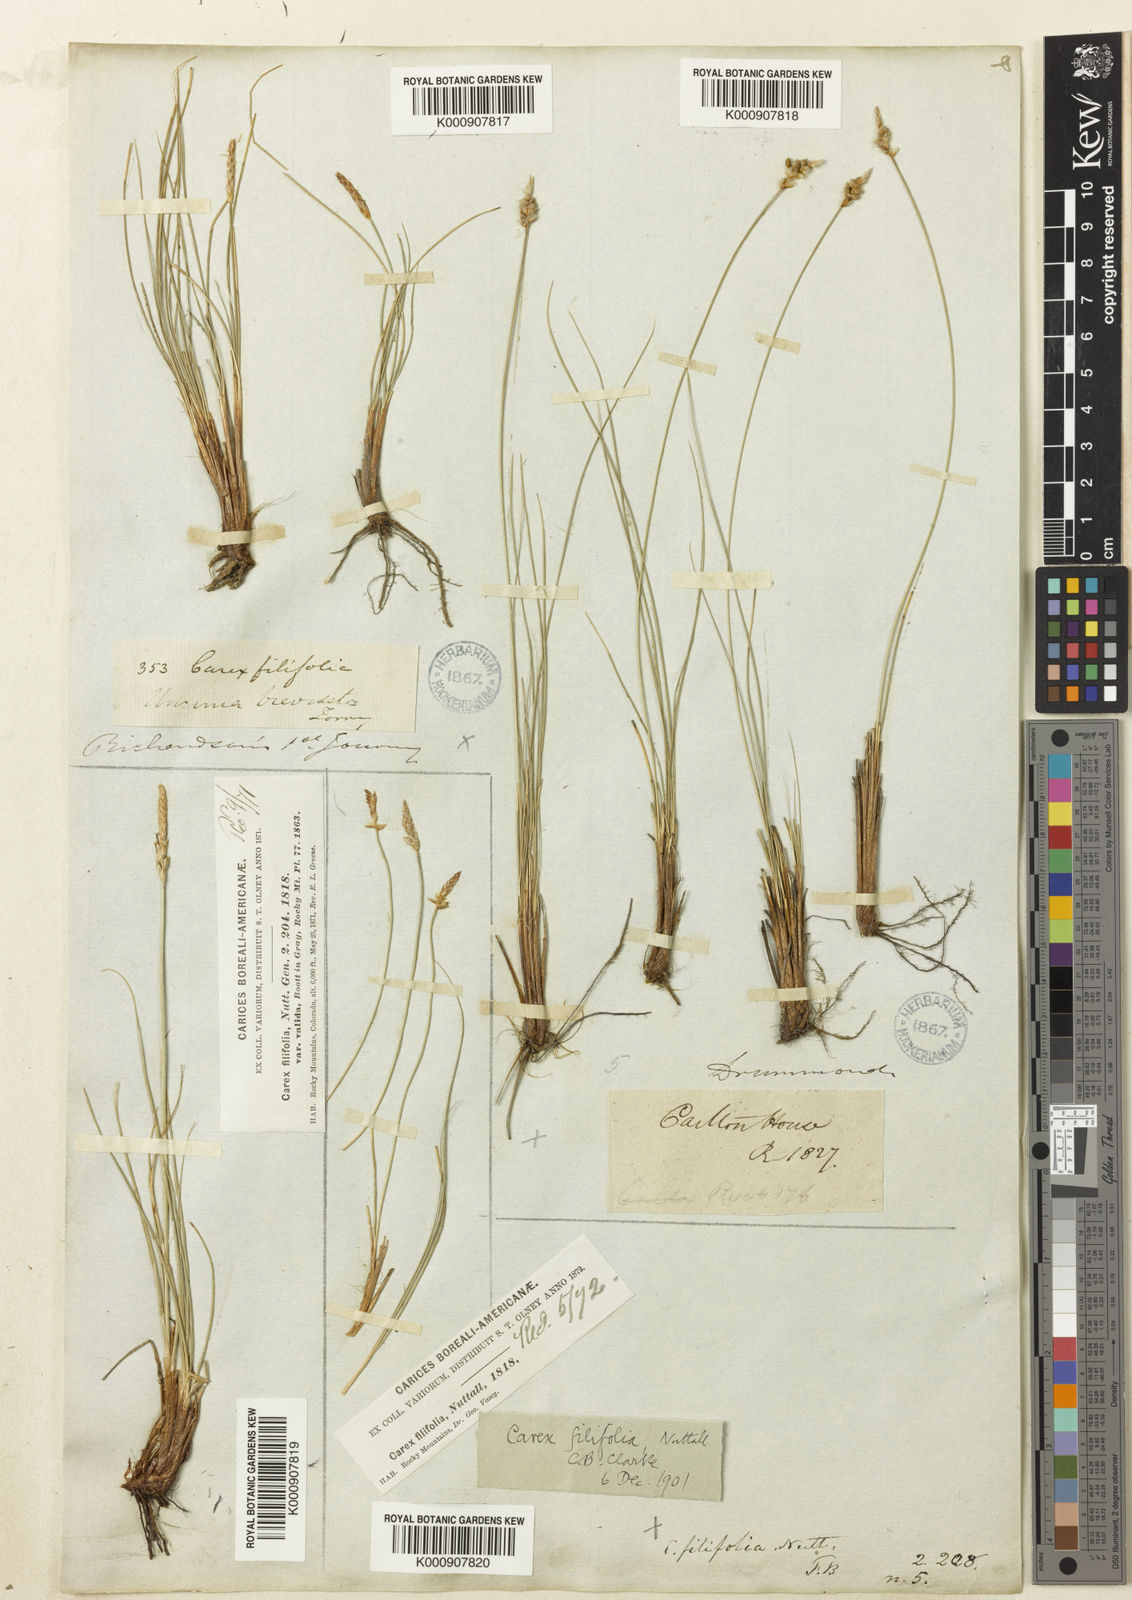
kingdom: Plantae
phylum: Tracheophyta
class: Liliopsida
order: Poales
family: Cyperaceae
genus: Carex
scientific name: Carex filifolia
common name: Threadleaf sedge
